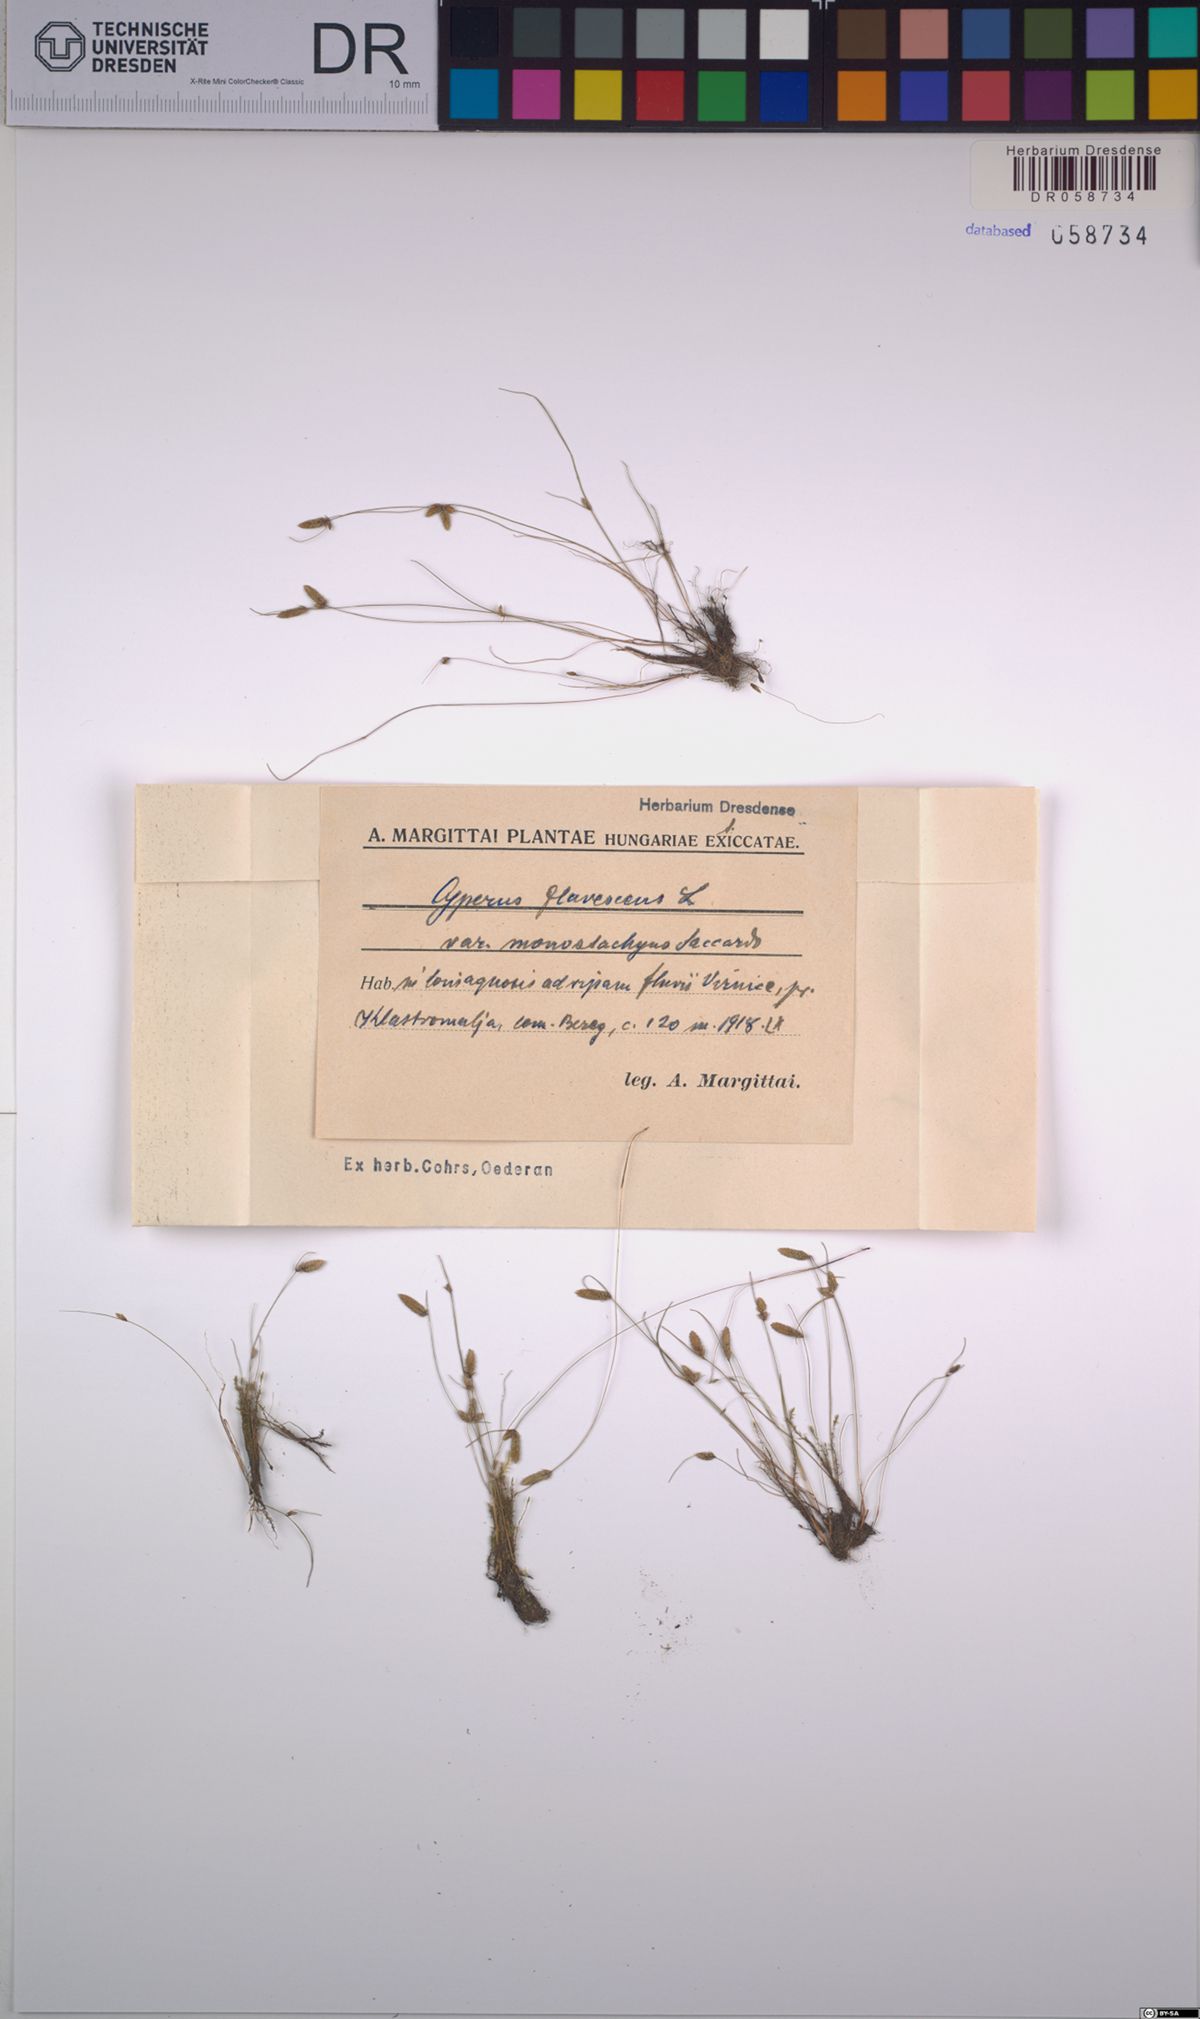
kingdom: Plantae
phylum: Tracheophyta
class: Liliopsida
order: Poales
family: Cyperaceae
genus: Cyperus
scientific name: Cyperus flavescens
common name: Yellow galingale
